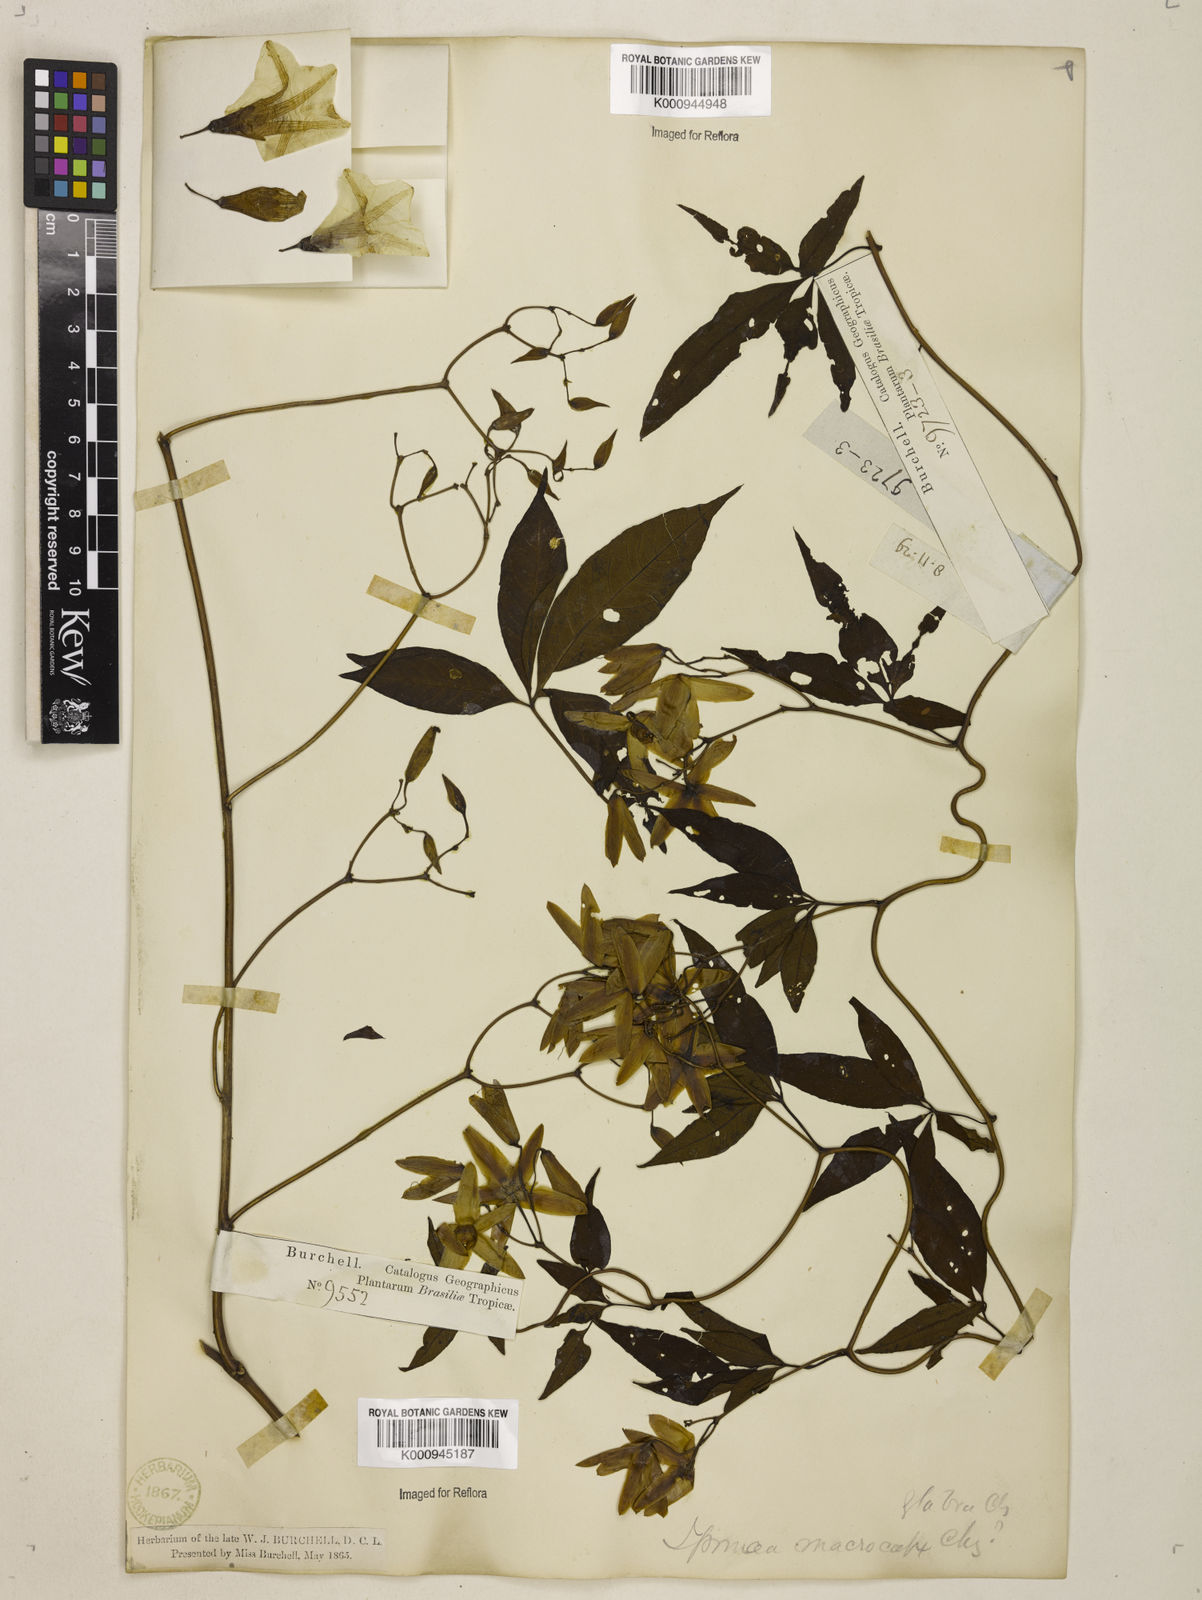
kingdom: Plantae
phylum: Tracheophyta
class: Magnoliopsida
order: Solanales
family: Convolvulaceae
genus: Distimake
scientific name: Distimake macrocalyx
